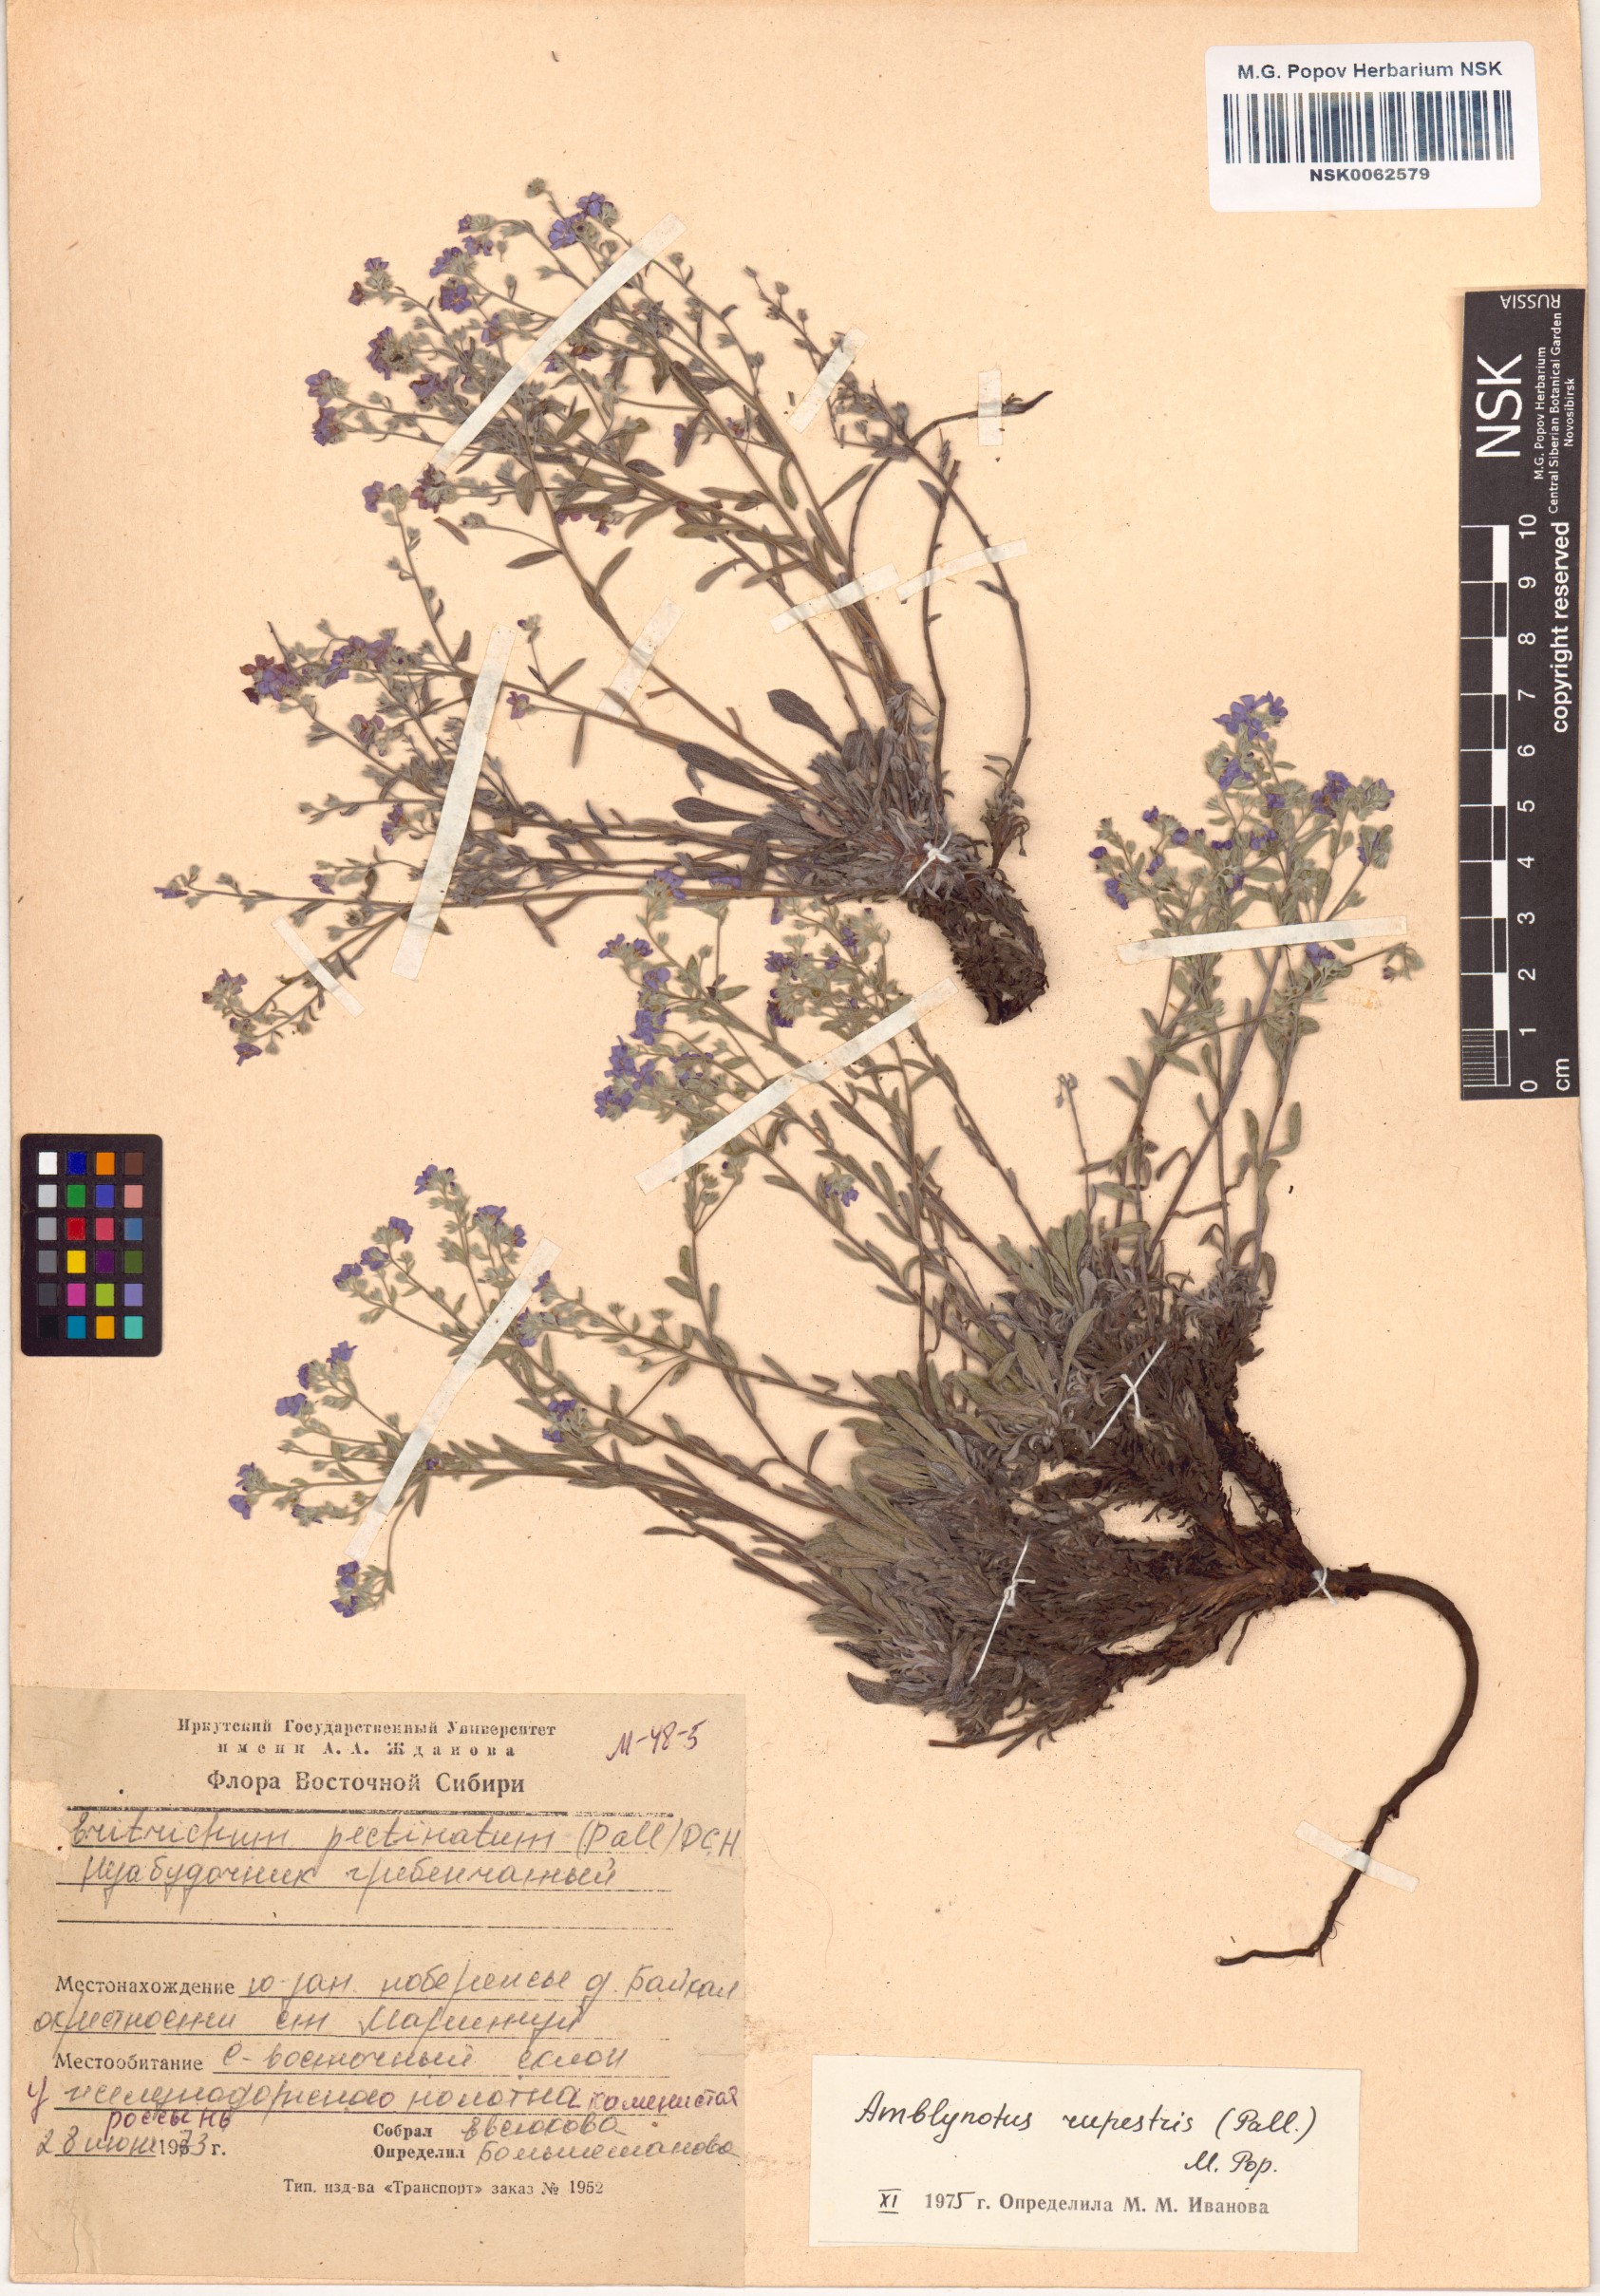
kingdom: Plantae
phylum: Tracheophyta
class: Magnoliopsida
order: Boraginales
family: Boraginaceae
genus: Eritrichium
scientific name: Eritrichium rupestre
